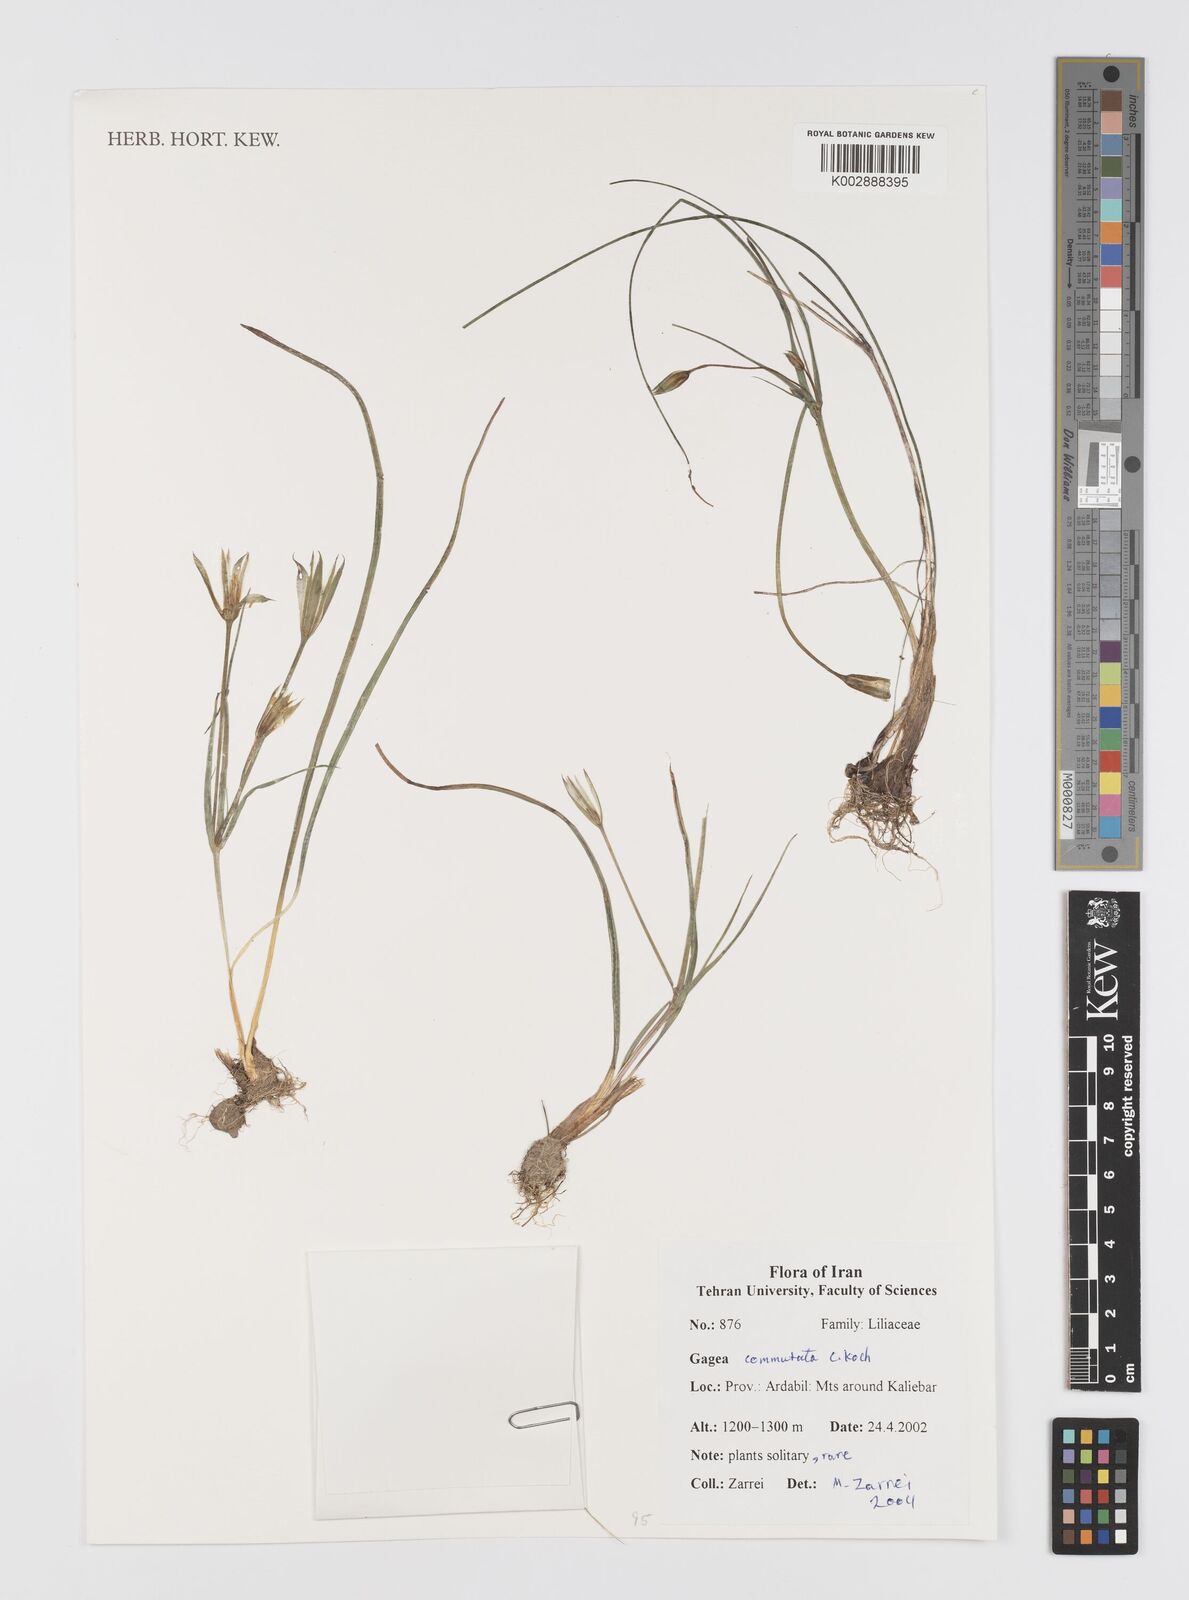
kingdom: Plantae
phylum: Tracheophyta
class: Liliopsida
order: Liliales
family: Liliaceae
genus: Gagea
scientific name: Gagea commutata
